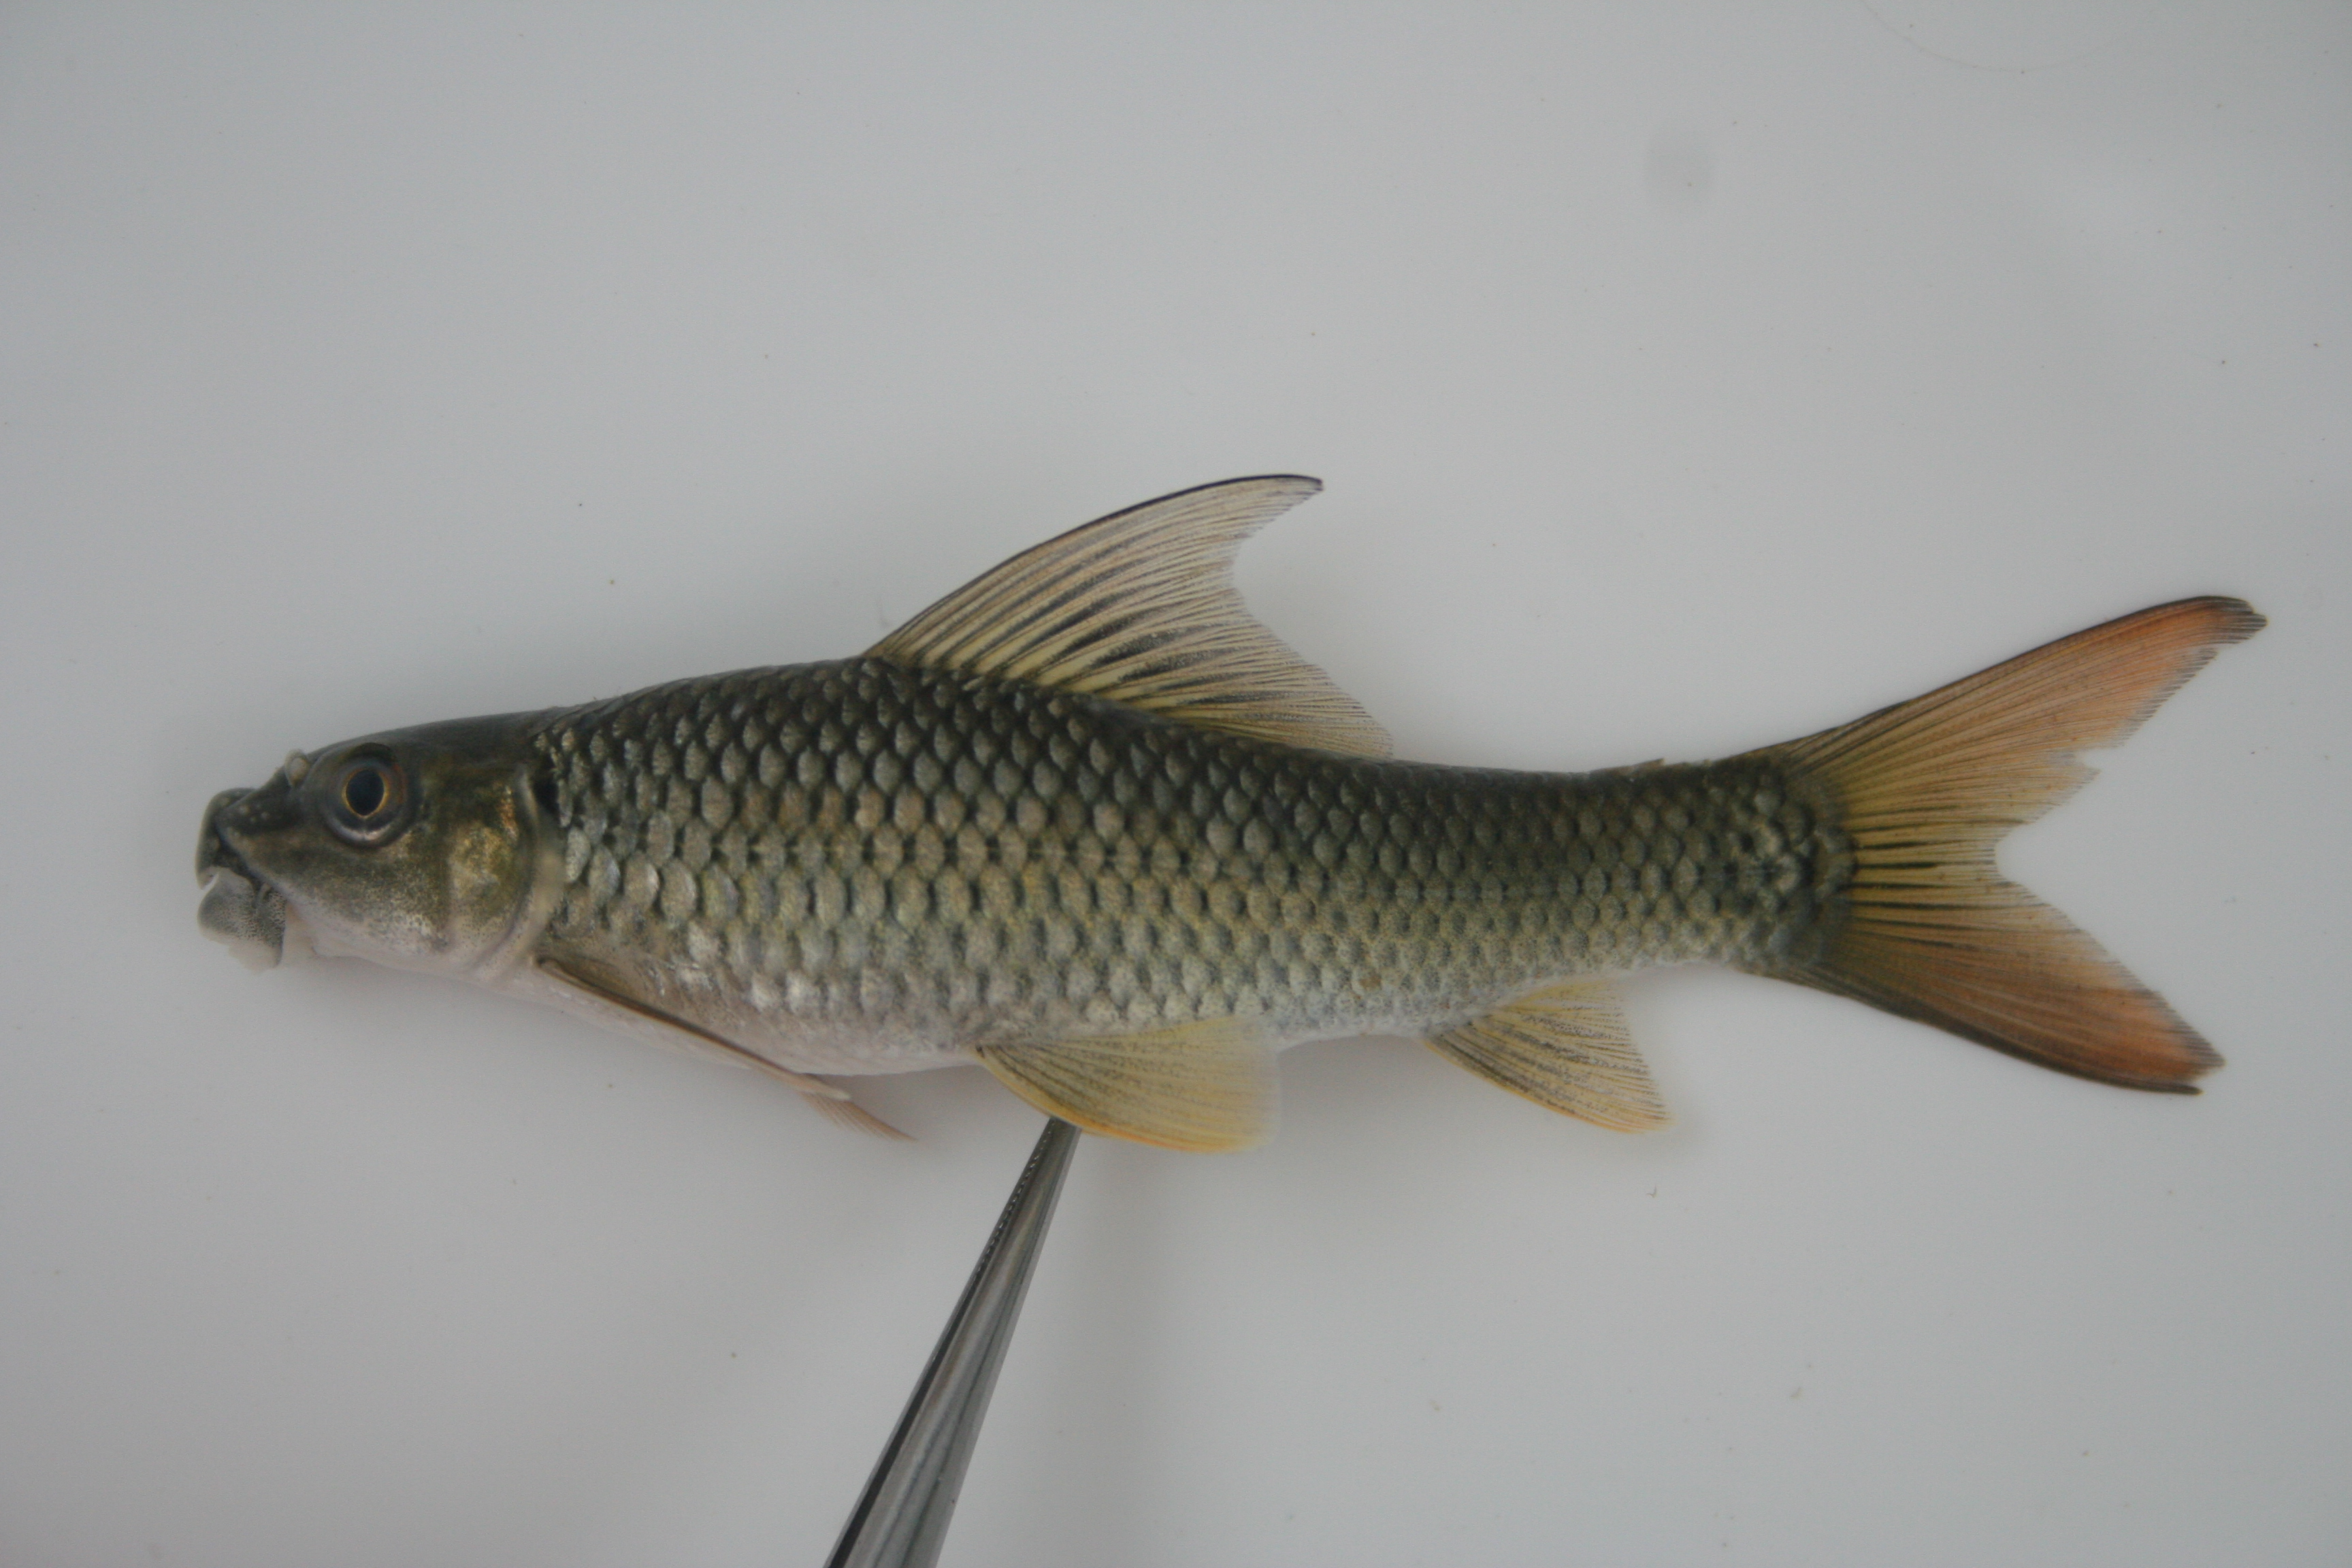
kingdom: Animalia
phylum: Chordata
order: Cypriniformes
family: Cyprinidae
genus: Labeo
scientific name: Labeo
